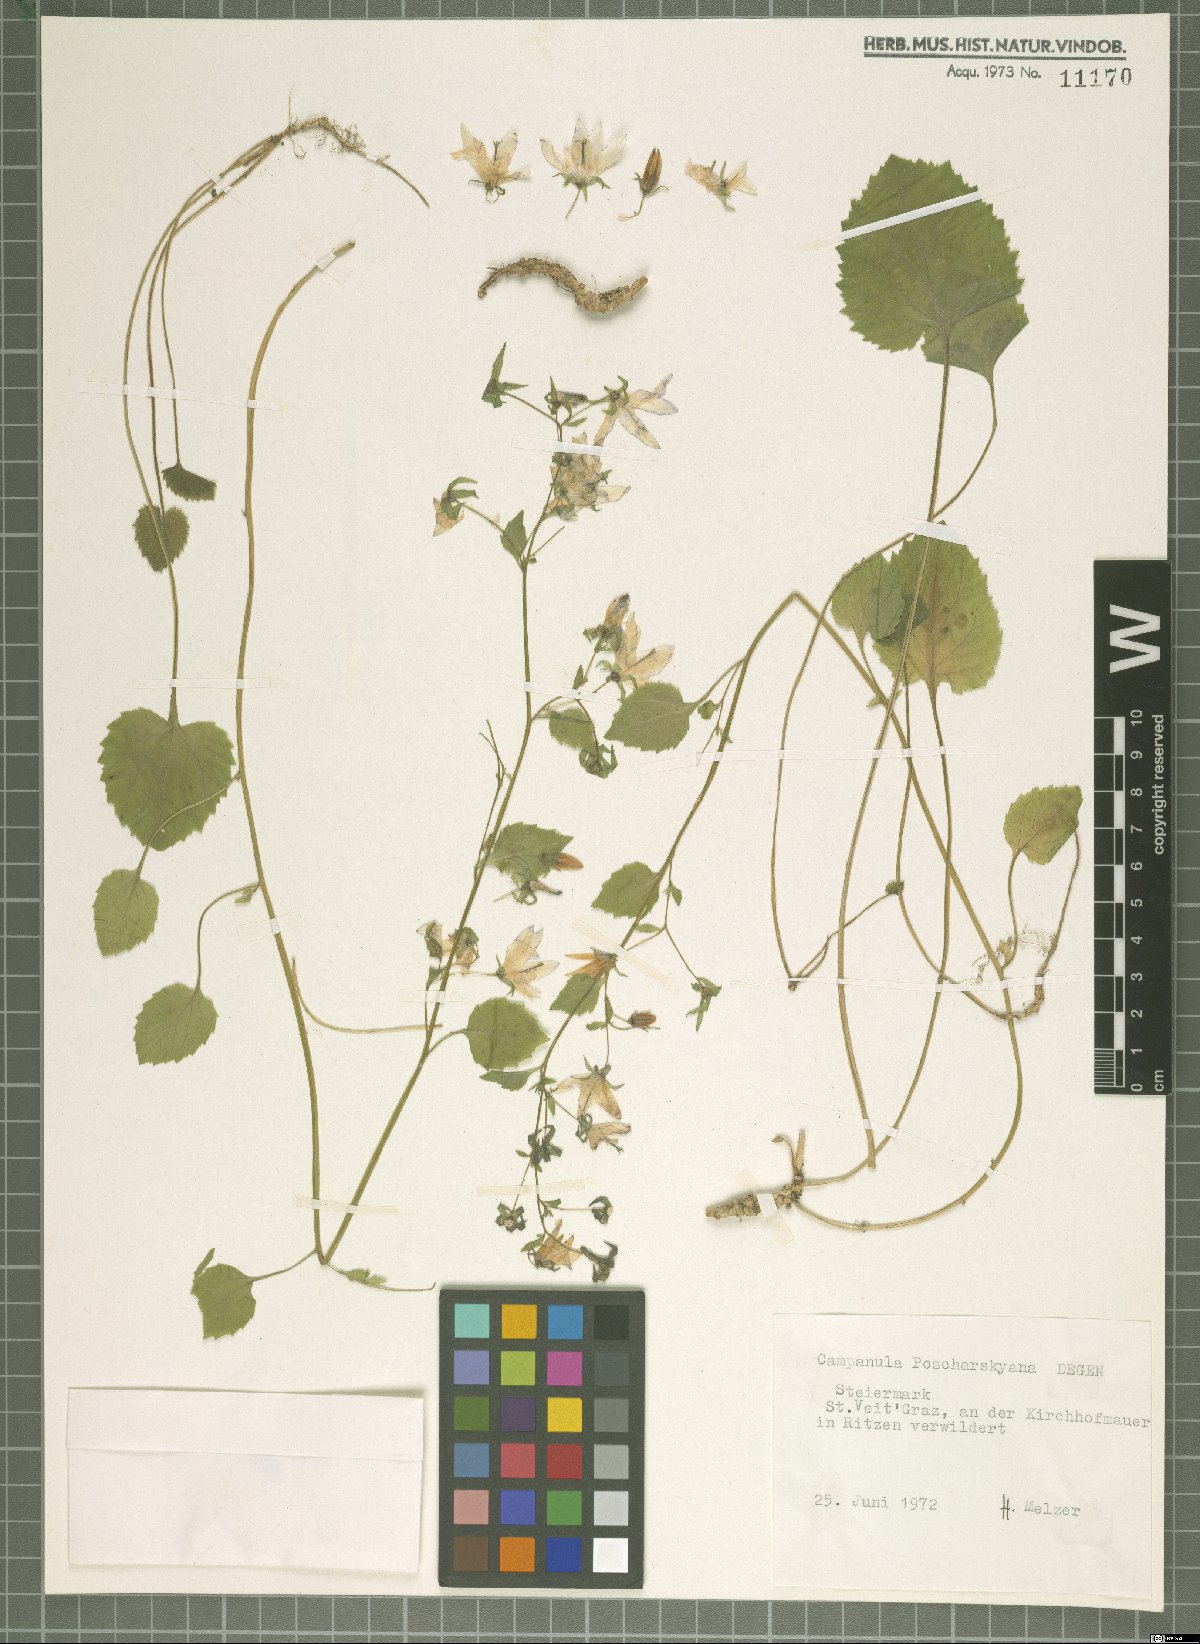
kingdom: Plantae
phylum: Tracheophyta
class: Magnoliopsida
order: Asterales
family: Campanulaceae
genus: Campanula
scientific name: Campanula poscharskyana
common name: Trailing bellflower
